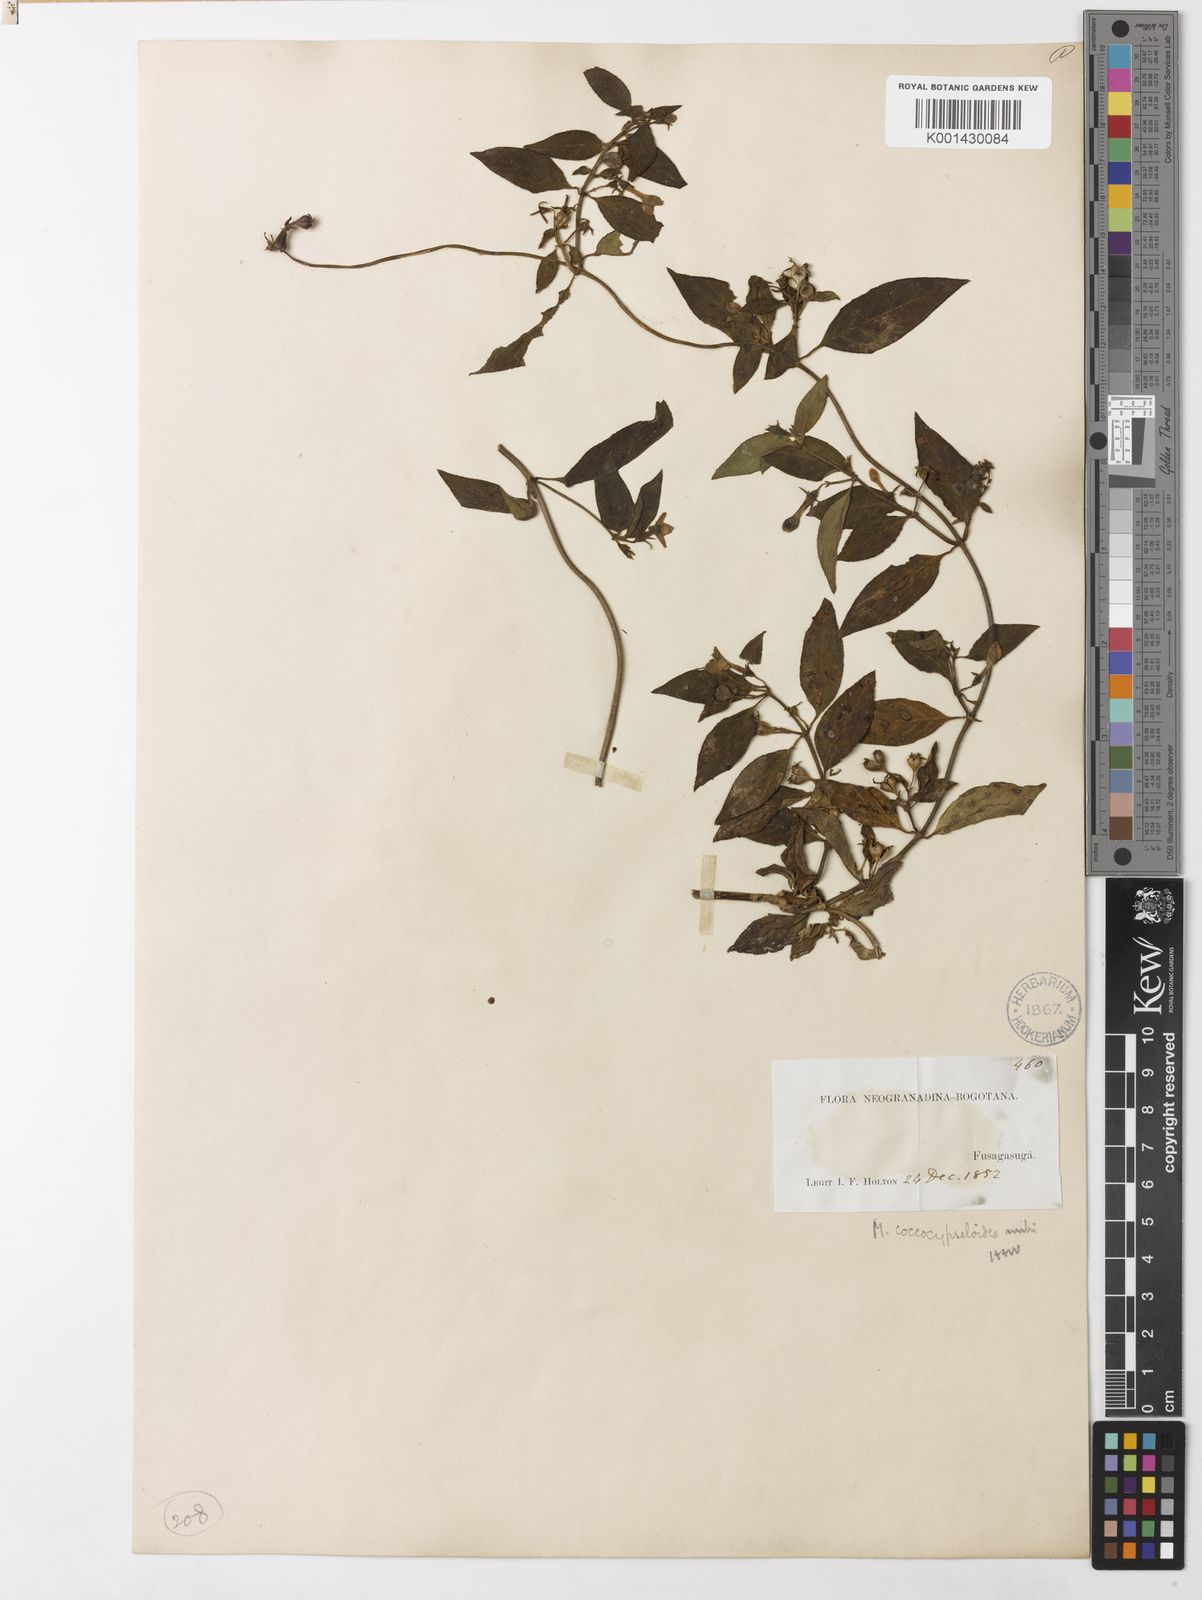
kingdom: Plantae
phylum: Tracheophyta
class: Magnoliopsida
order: Gentianales
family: Rubiaceae
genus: Manettia
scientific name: Manettia coccocypseloides
